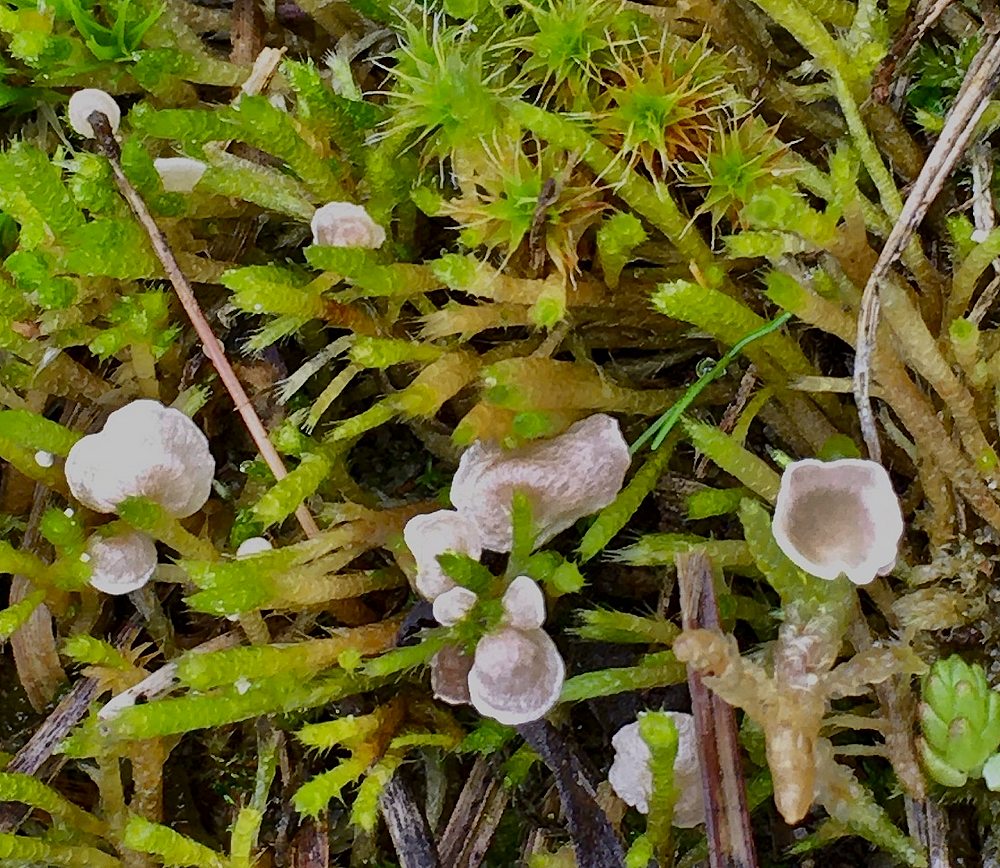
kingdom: Fungi
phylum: Basidiomycota
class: Agaricomycetes
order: Agaricales
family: Hygrophoraceae
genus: Arrhenia
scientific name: Arrhenia retiruga
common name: lille fontænehat
